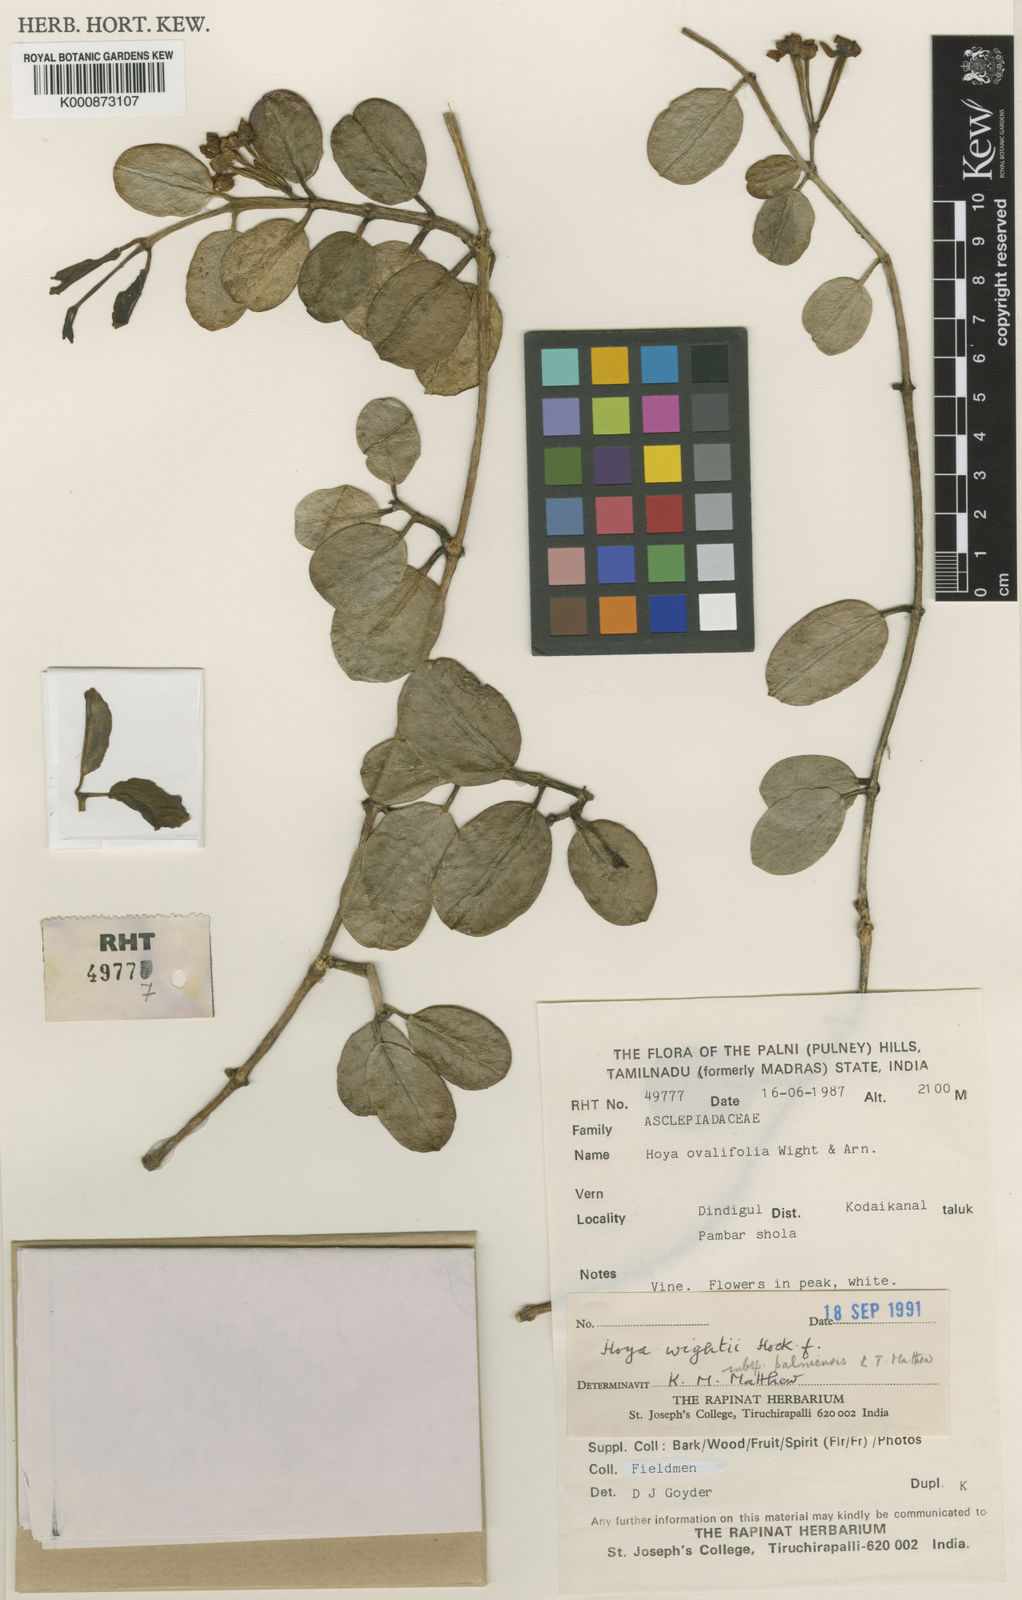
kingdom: Plantae
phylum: Tracheophyta
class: Magnoliopsida
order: Gentianales
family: Apocynaceae
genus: Hoya
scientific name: Hoya wightii
